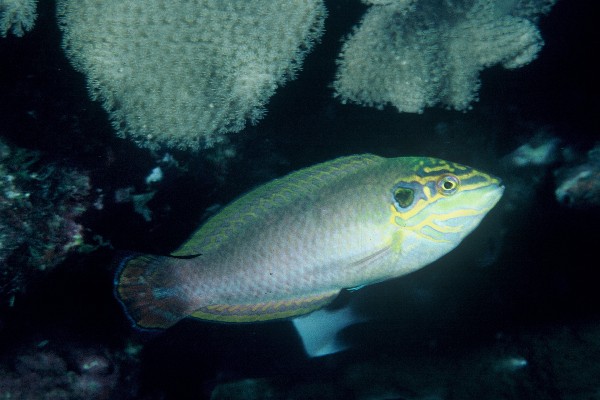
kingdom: Animalia
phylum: Chordata
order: Perciformes
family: Labridae
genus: Halichoeres
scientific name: Halichoeres melasmapomus
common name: Black-ear wrasse
